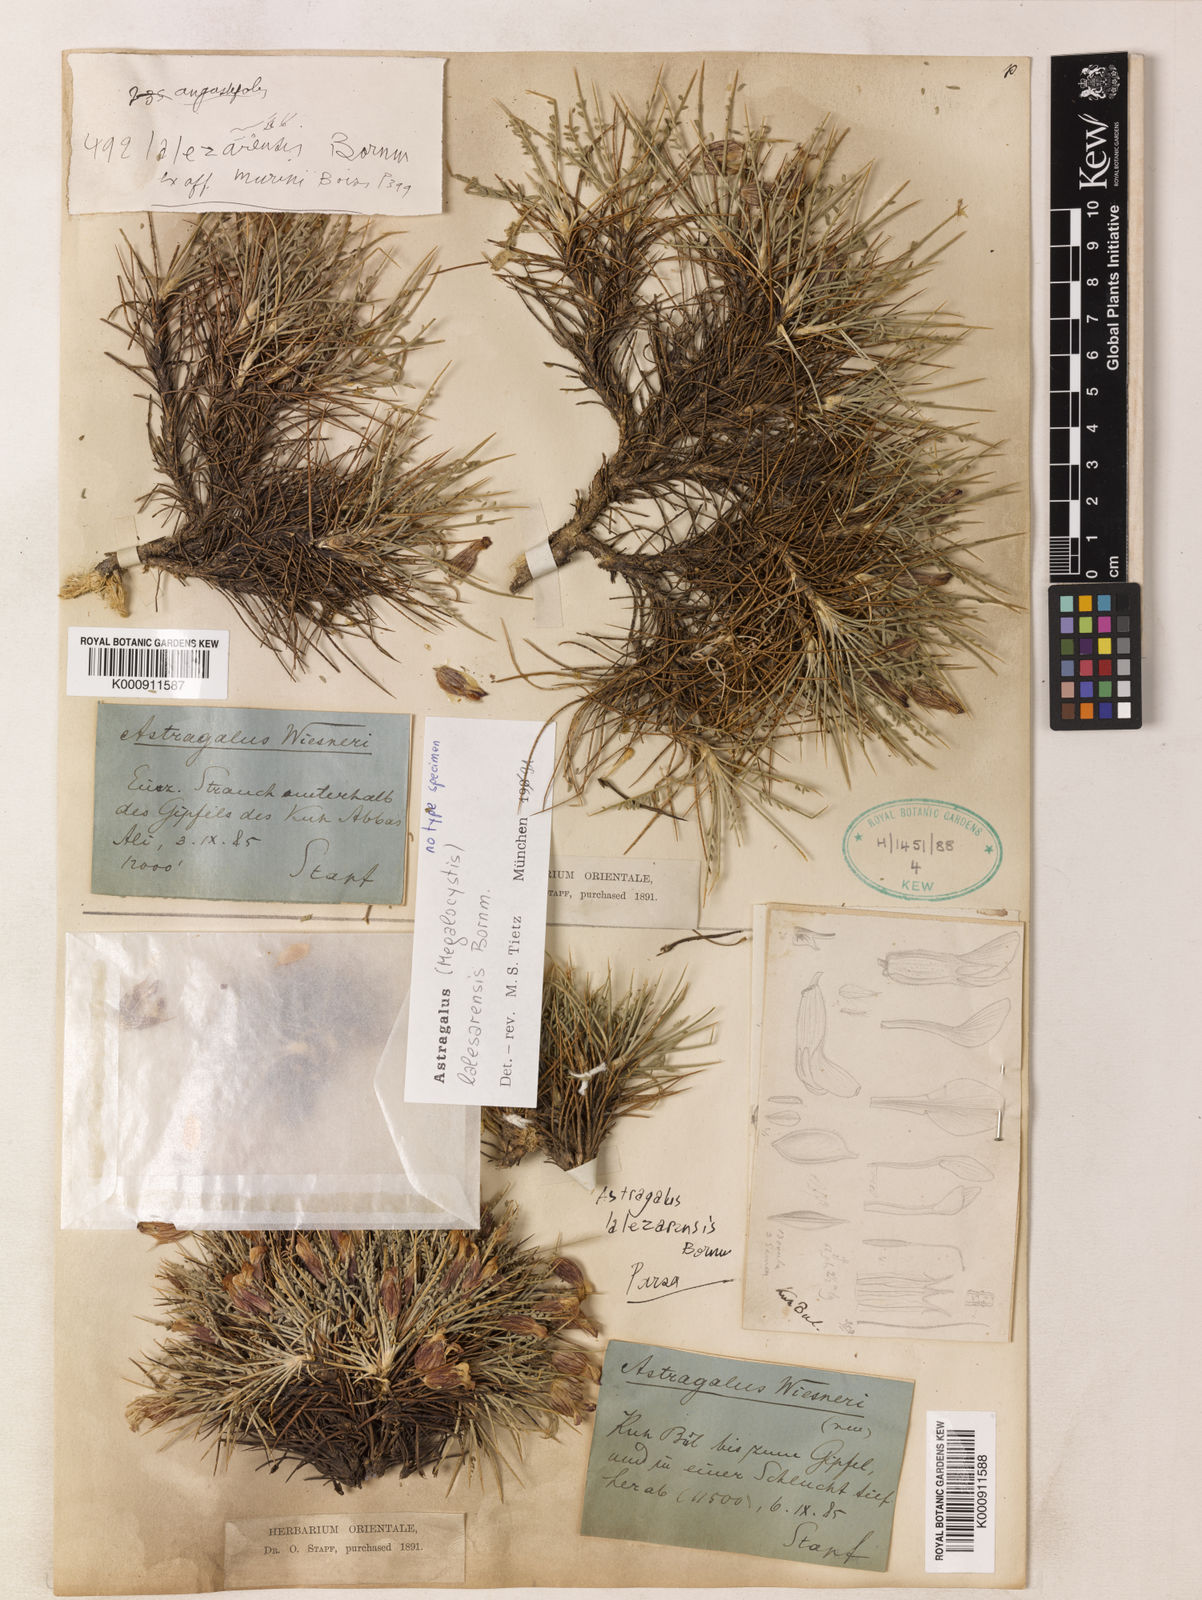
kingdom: Plantae
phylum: Tracheophyta
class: Magnoliopsida
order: Fabales
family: Fabaceae
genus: Astragalus
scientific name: Astragalus lalesarensis
